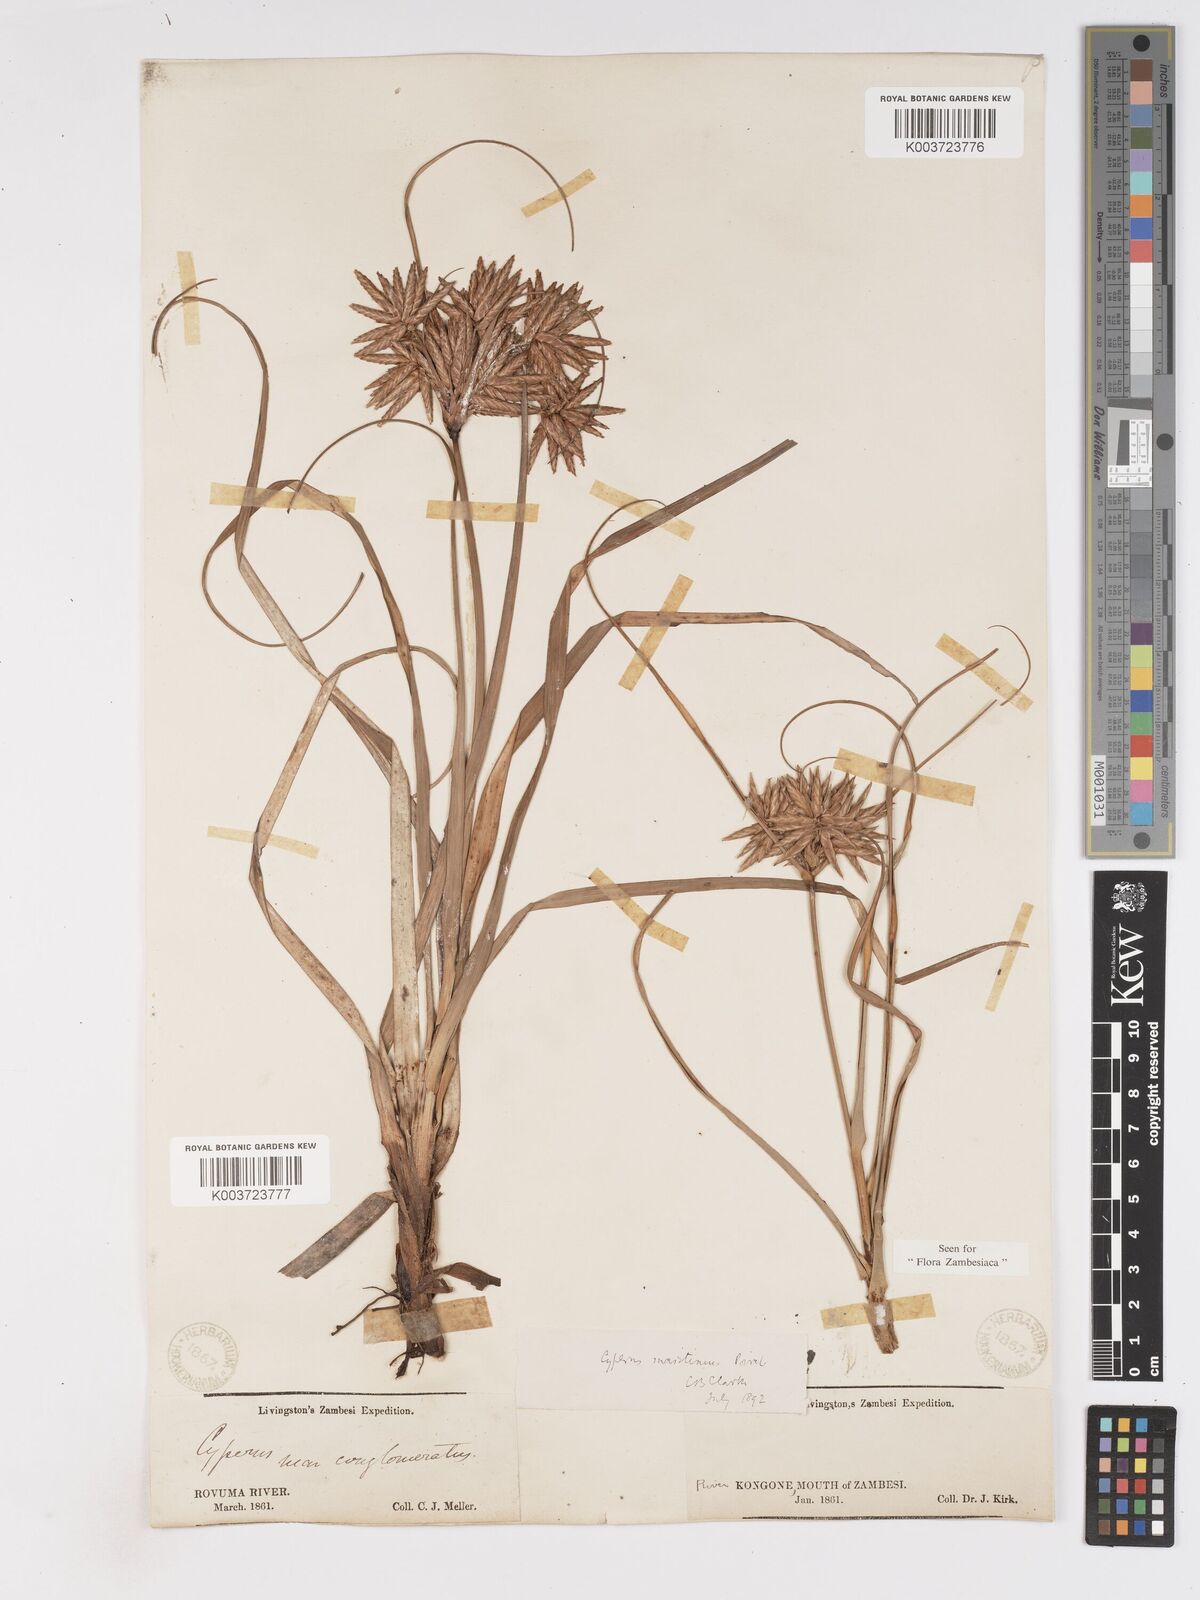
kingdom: Plantae
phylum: Tracheophyta
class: Liliopsida
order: Poales
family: Cyperaceae
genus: Cyperus
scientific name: Cyperus crassipes
